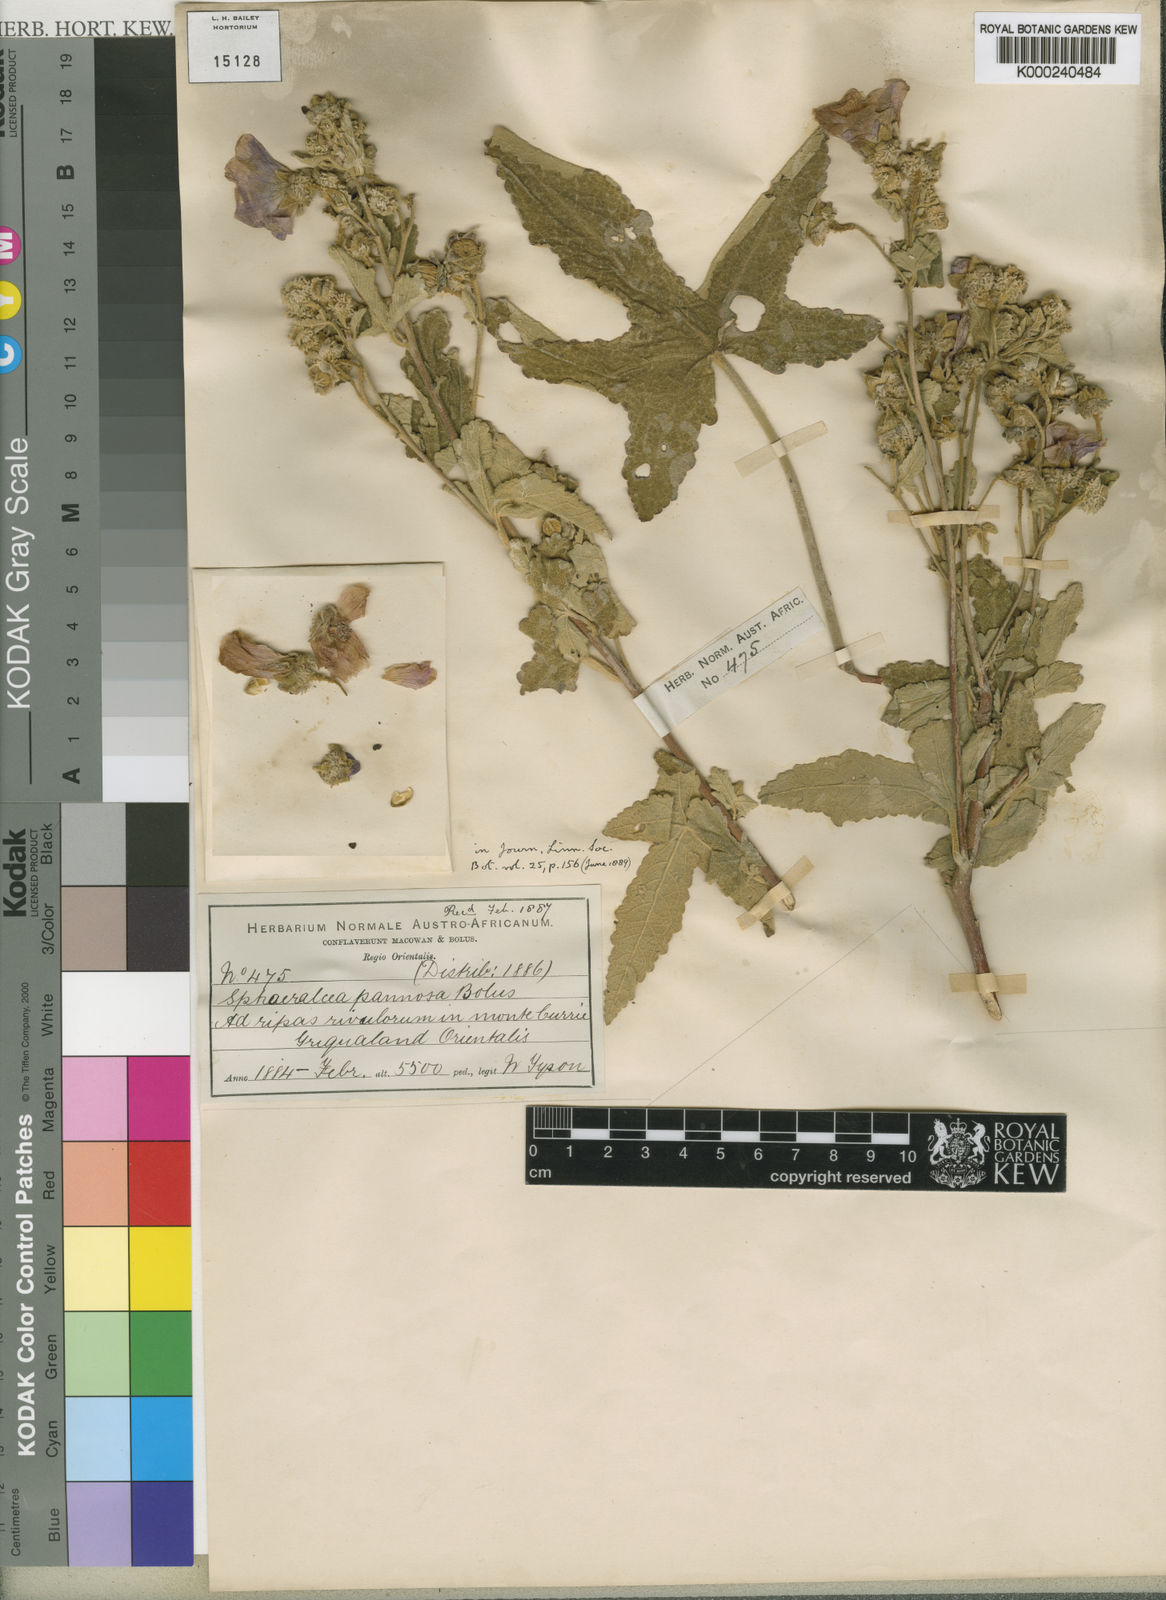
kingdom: Plantae
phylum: Tracheophyta
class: Magnoliopsida
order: Malvales
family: Malvaceae
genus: Sphaeralcea
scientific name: Sphaeralcea
